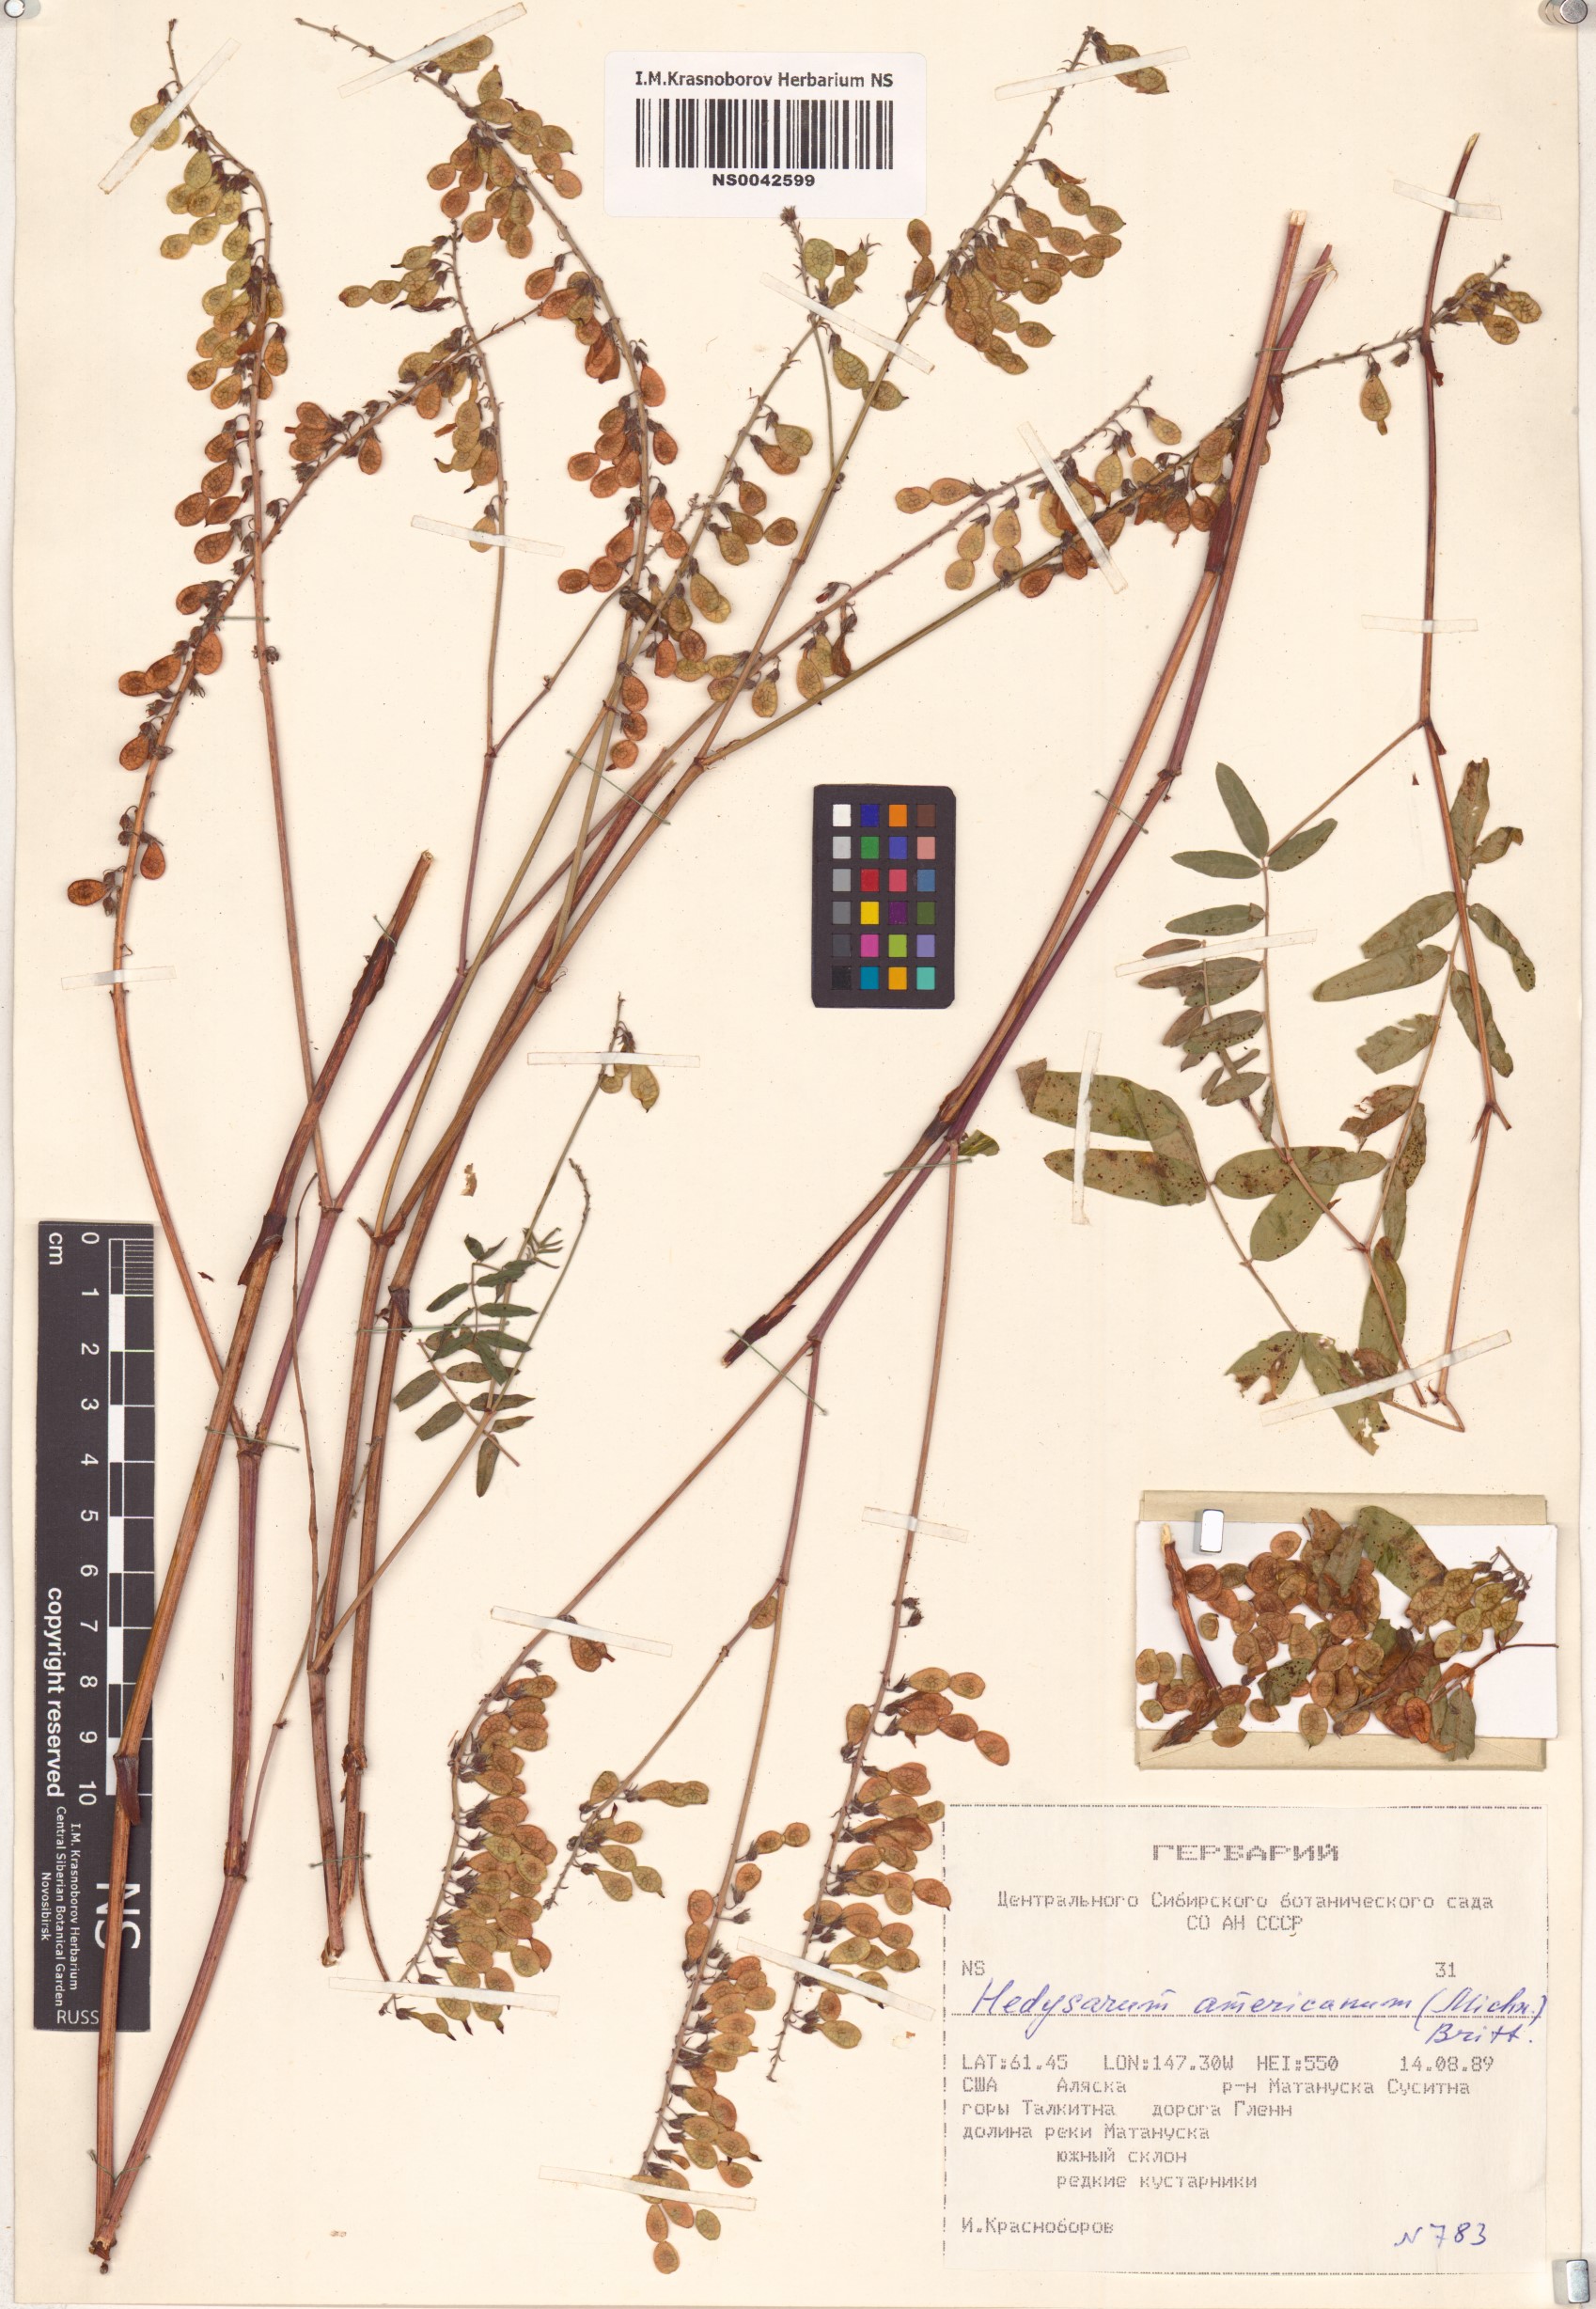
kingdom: Plantae
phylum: Tracheophyta
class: Magnoliopsida
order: Fabales
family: Fabaceae
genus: Hedysarum
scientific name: Hedysarum americanum
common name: Alpine hedysarum
